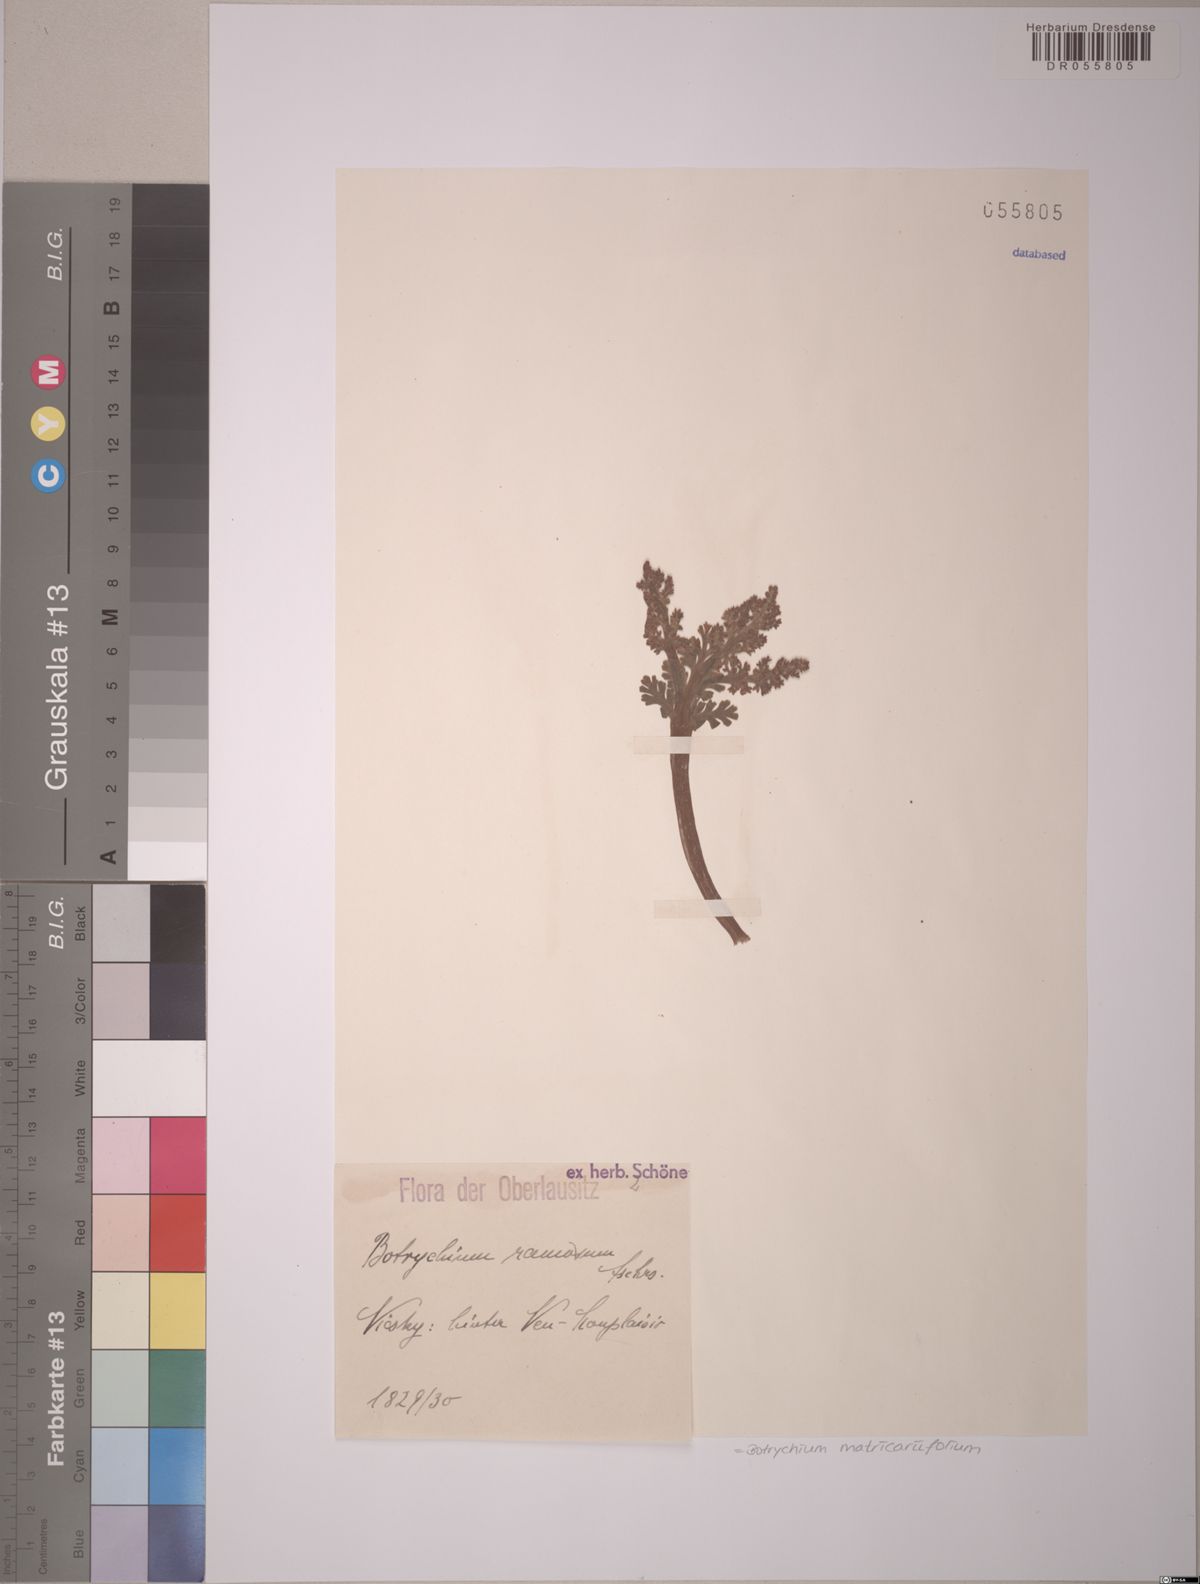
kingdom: Plantae
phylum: Tracheophyta
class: Polypodiopsida
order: Ophioglossales
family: Ophioglossaceae
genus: Botrychium
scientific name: Botrychium matricariifolium
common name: Branched moonwort
